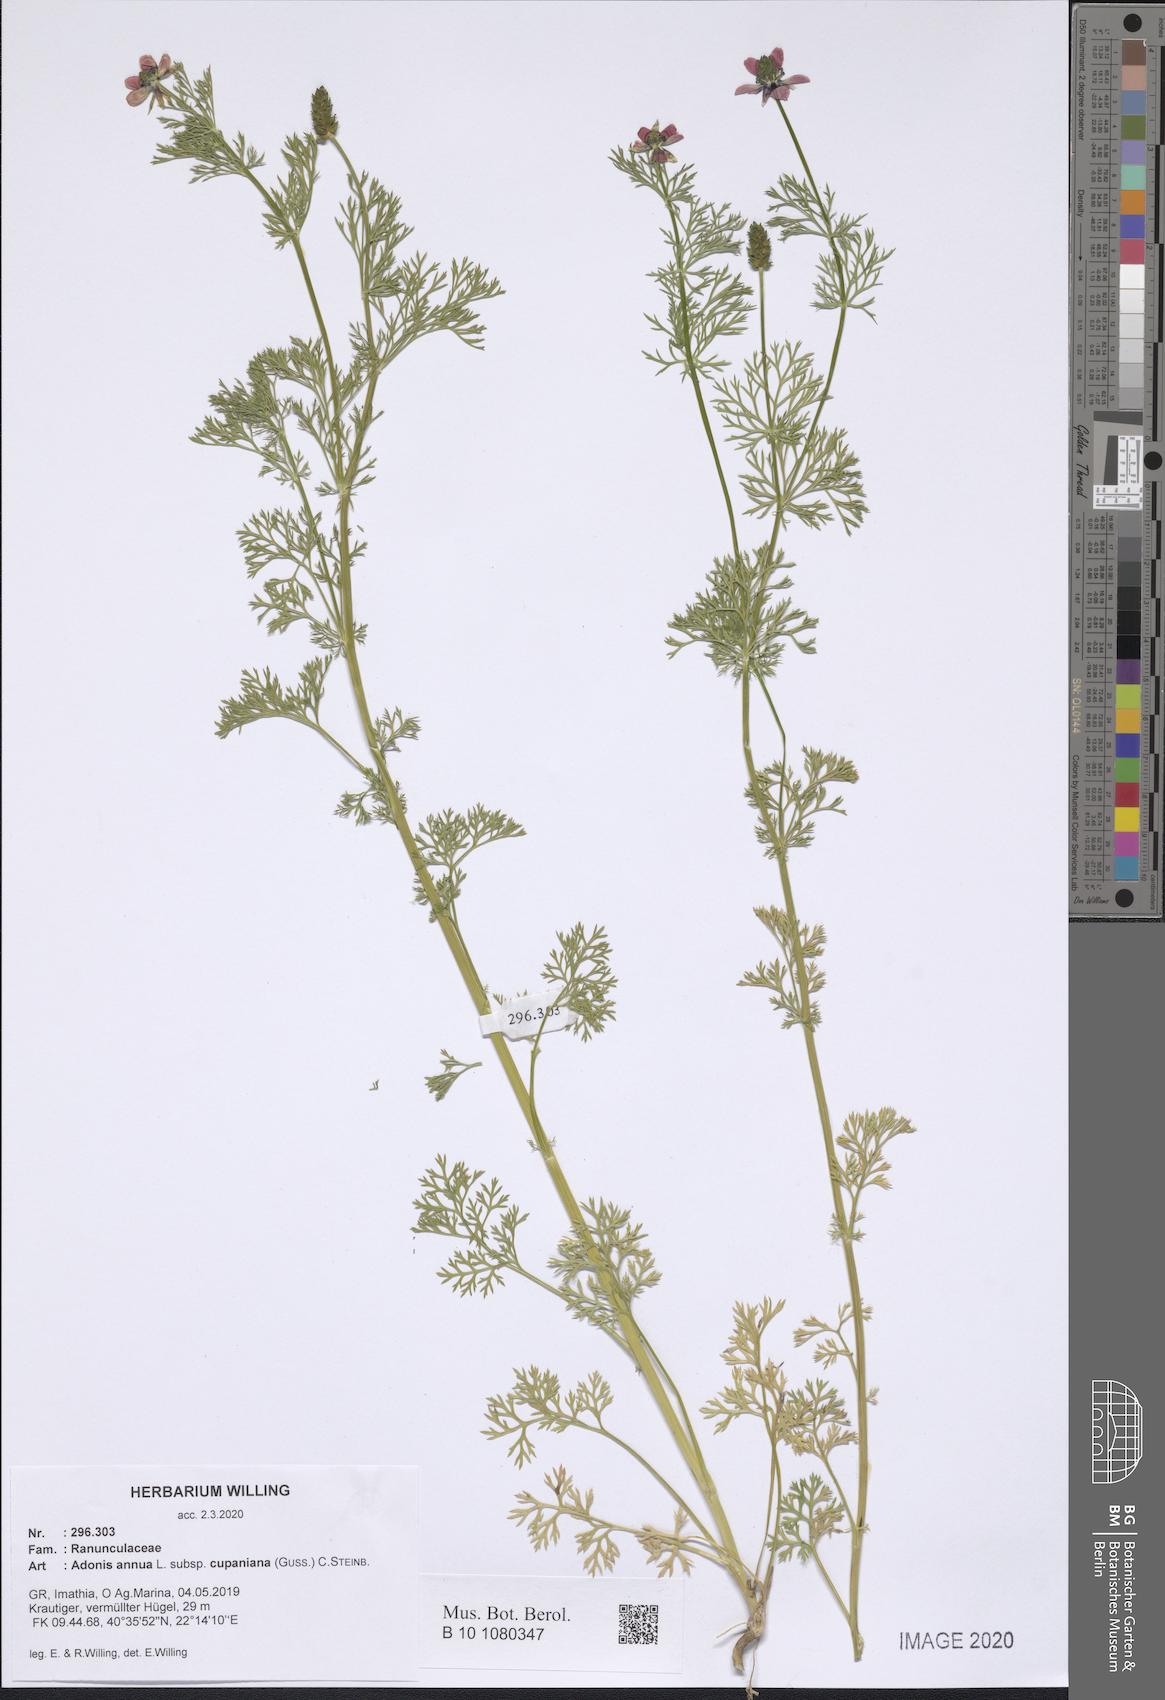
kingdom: Plantae
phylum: Tracheophyta
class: Magnoliopsida
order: Ranunculales
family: Ranunculaceae
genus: Adonis
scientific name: Adonis annua
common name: Pheasant's-eye
